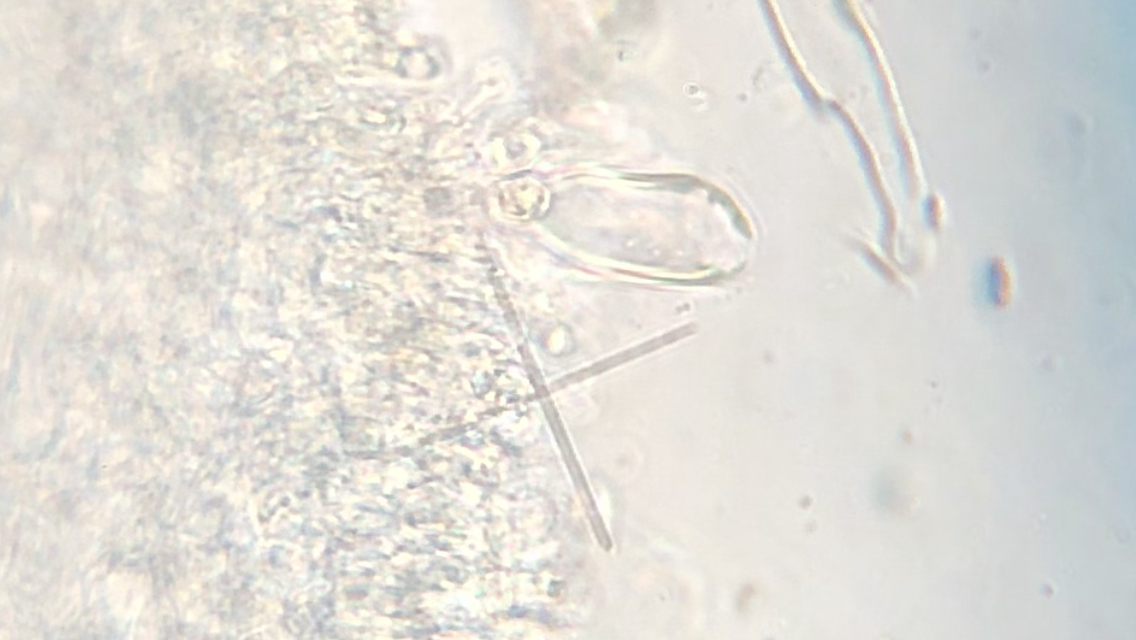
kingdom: Fungi
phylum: Basidiomycota
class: Agaricomycetes
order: Agaricales
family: Physalacriaceae
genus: Strobilurus
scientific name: Strobilurus stephanocystis
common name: fyrre-koglehat
